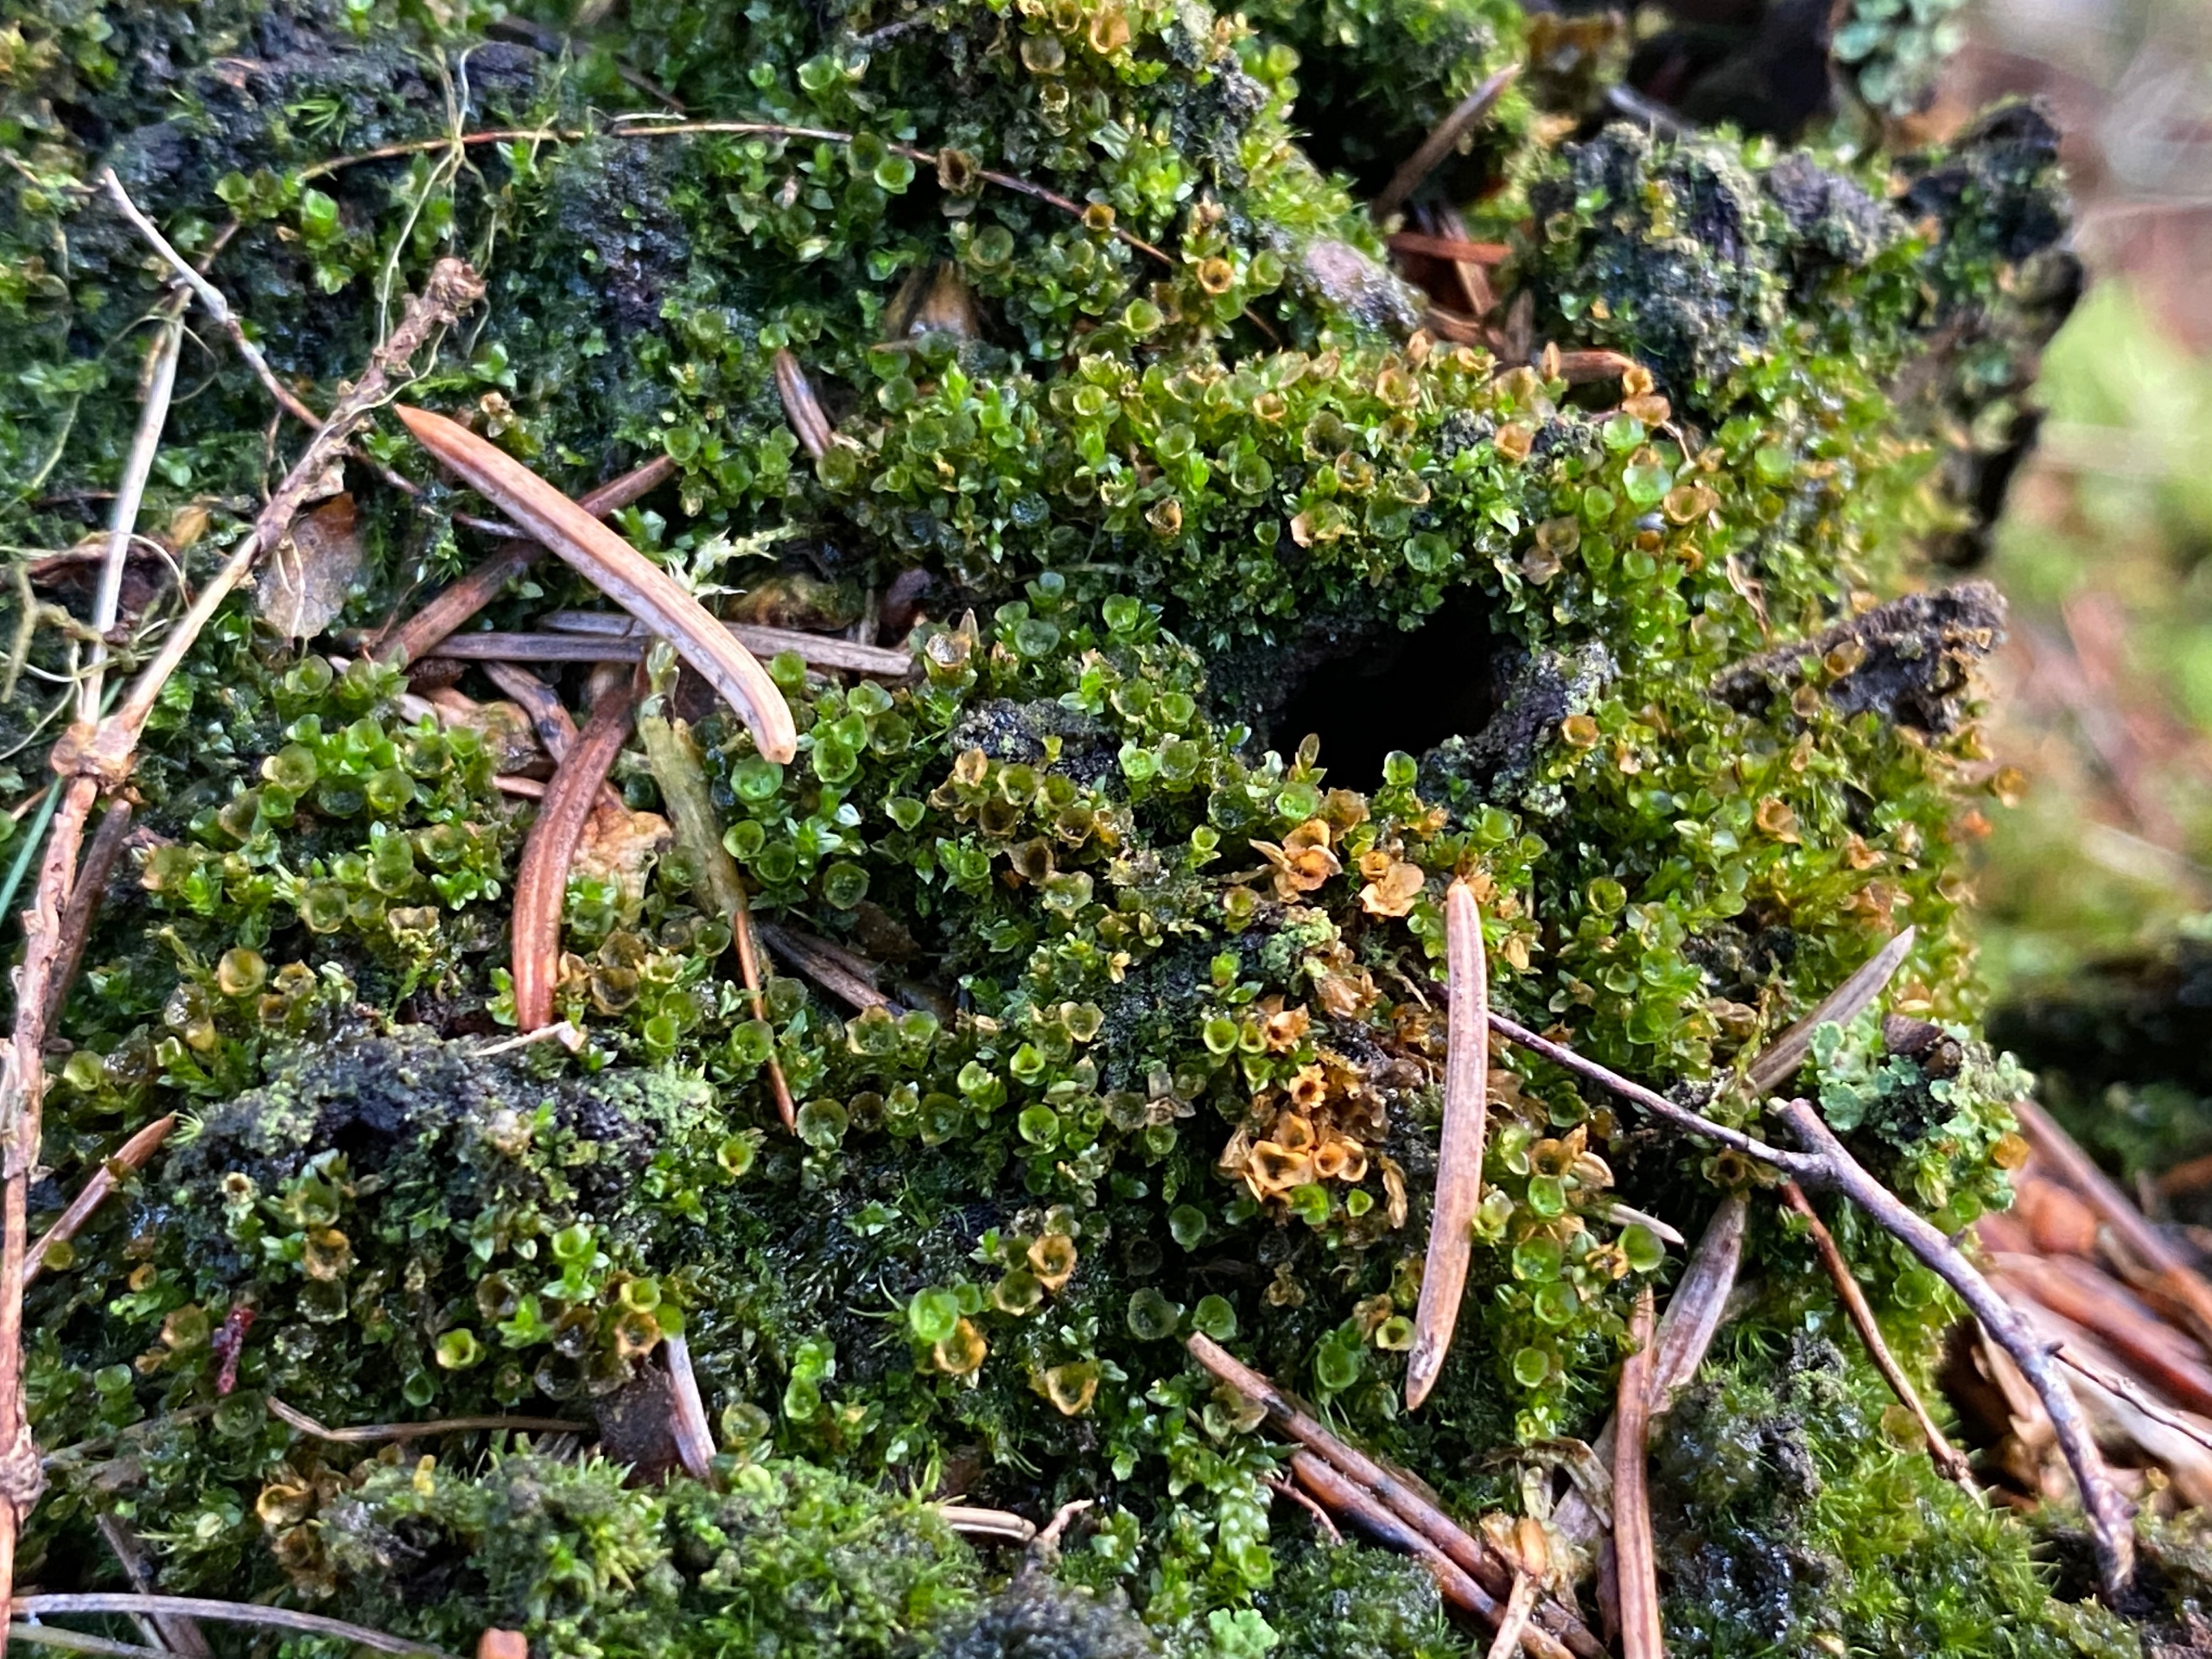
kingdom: Plantae
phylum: Bryophyta
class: Polytrichopsida
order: Tetraphidales
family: Tetraphidaceae
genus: Tetraphis
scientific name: Tetraphis pellucida
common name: Almindelig firtand
